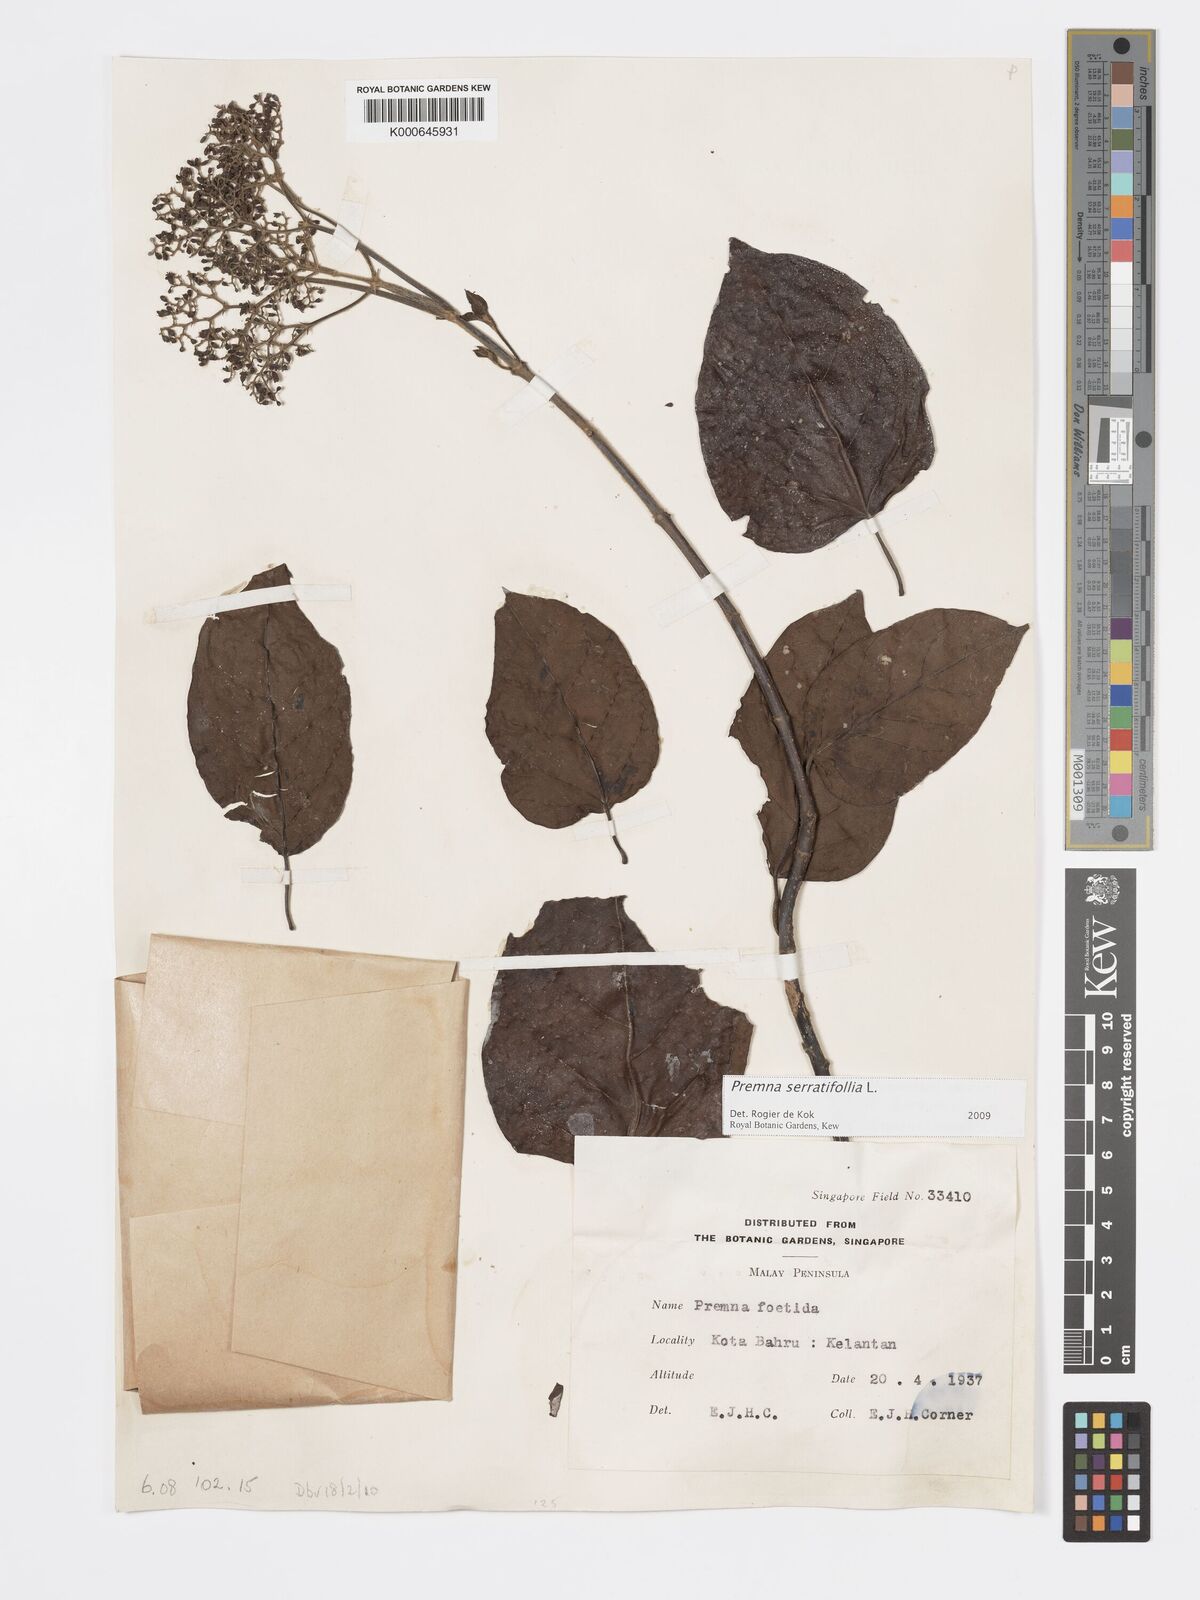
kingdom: Plantae
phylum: Tracheophyta
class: Magnoliopsida
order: Lamiales
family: Lamiaceae
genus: Premna
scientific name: Premna serratifolia
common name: Bastard guelder
